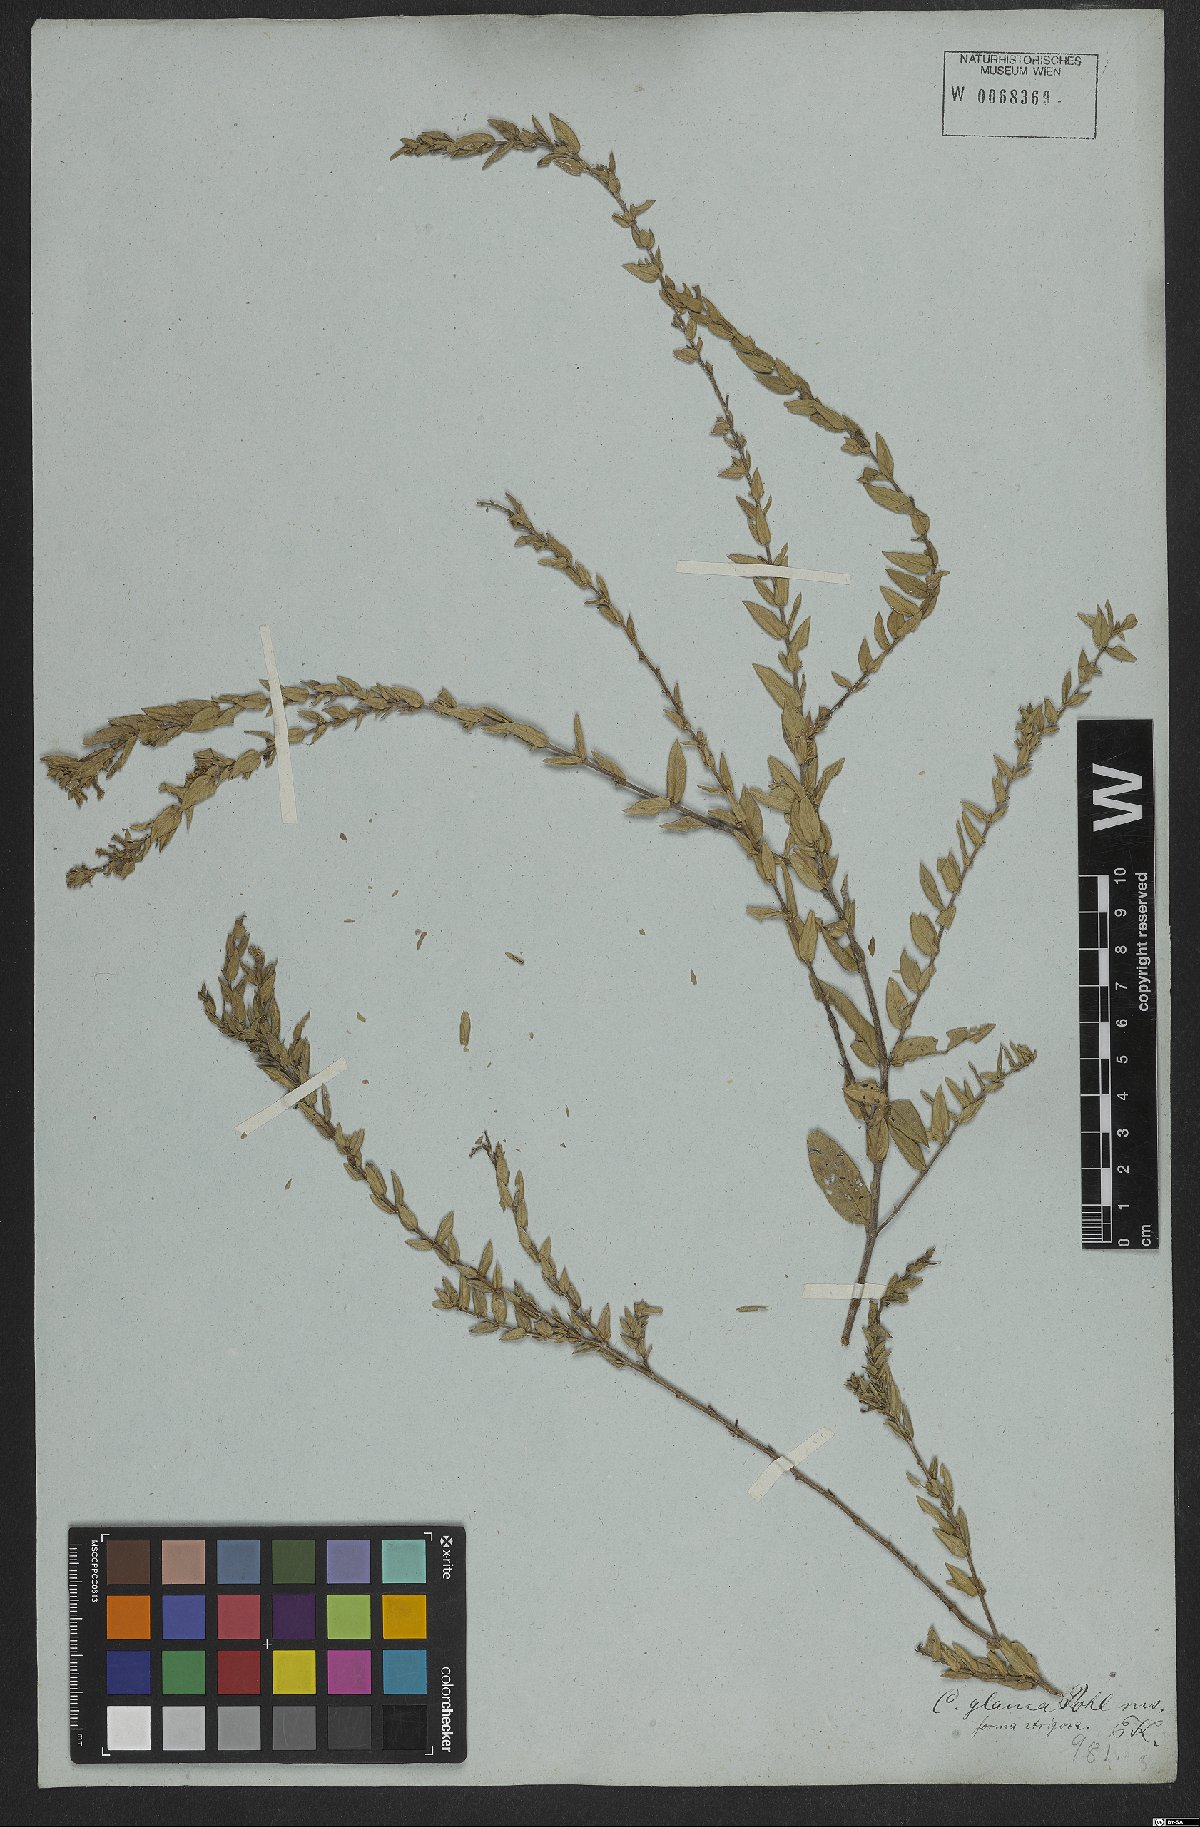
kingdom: Plantae
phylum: Tracheophyta
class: Magnoliopsida
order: Myrtales
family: Lythraceae
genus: Cuphea
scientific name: Cuphea glauca
